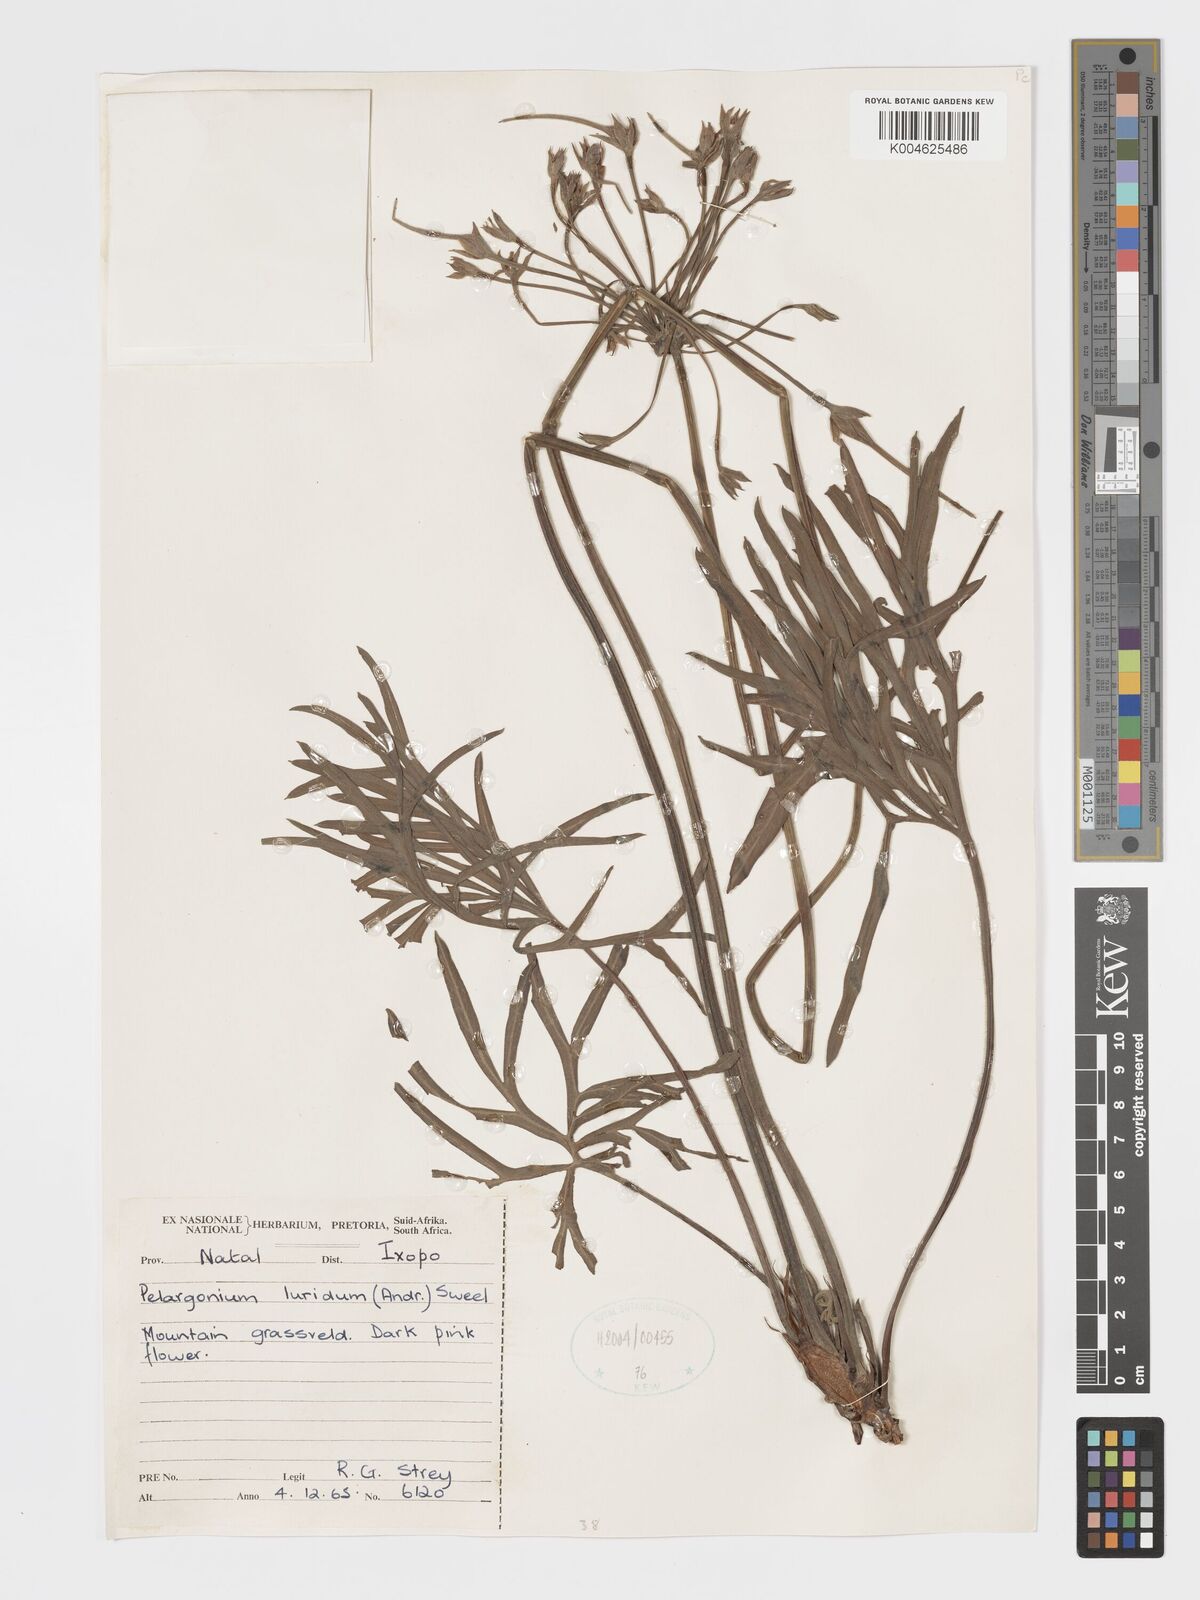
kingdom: Plantae
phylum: Tracheophyta
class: Magnoliopsida
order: Geraniales
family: Geraniaceae
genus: Pelargonium
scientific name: Pelargonium luridum
